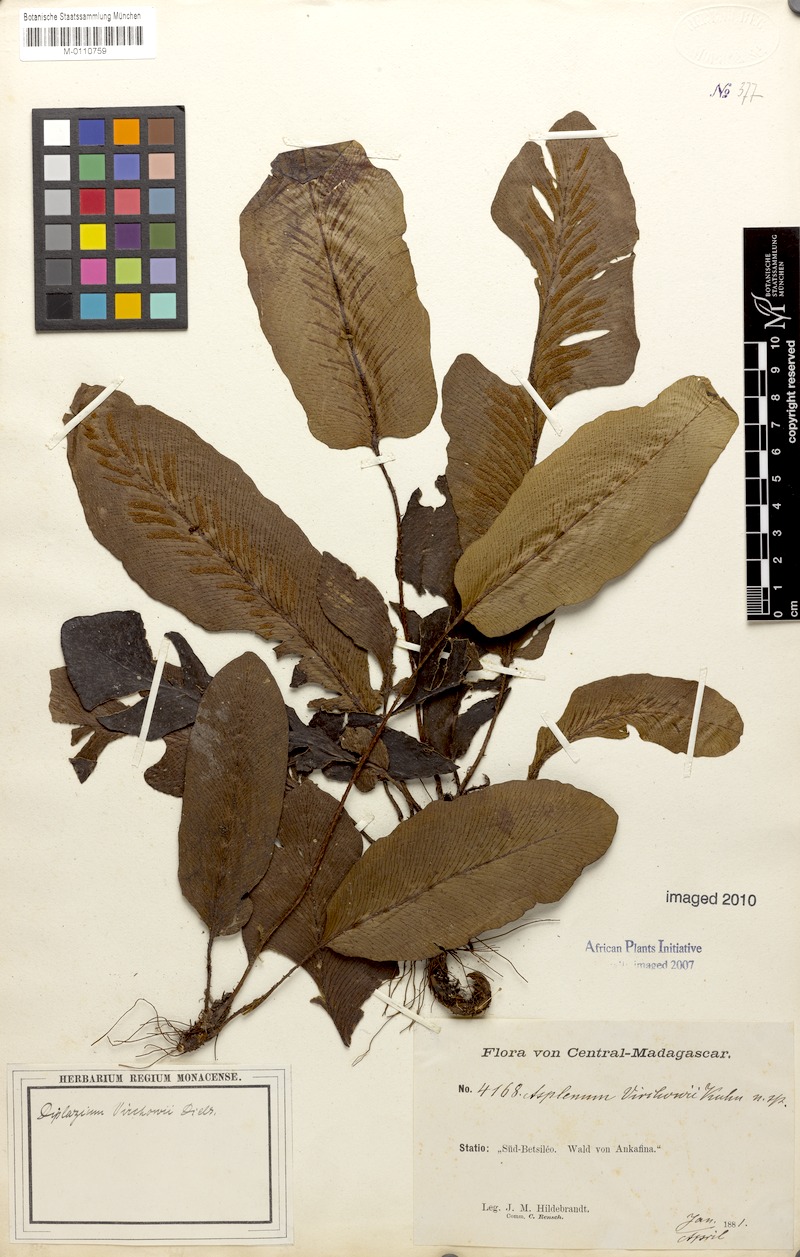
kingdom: Plantae
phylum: Tracheophyta
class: Polypodiopsida
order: Polypodiales
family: Aspleniaceae
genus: Asplenium
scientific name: Asplenium virchowii
